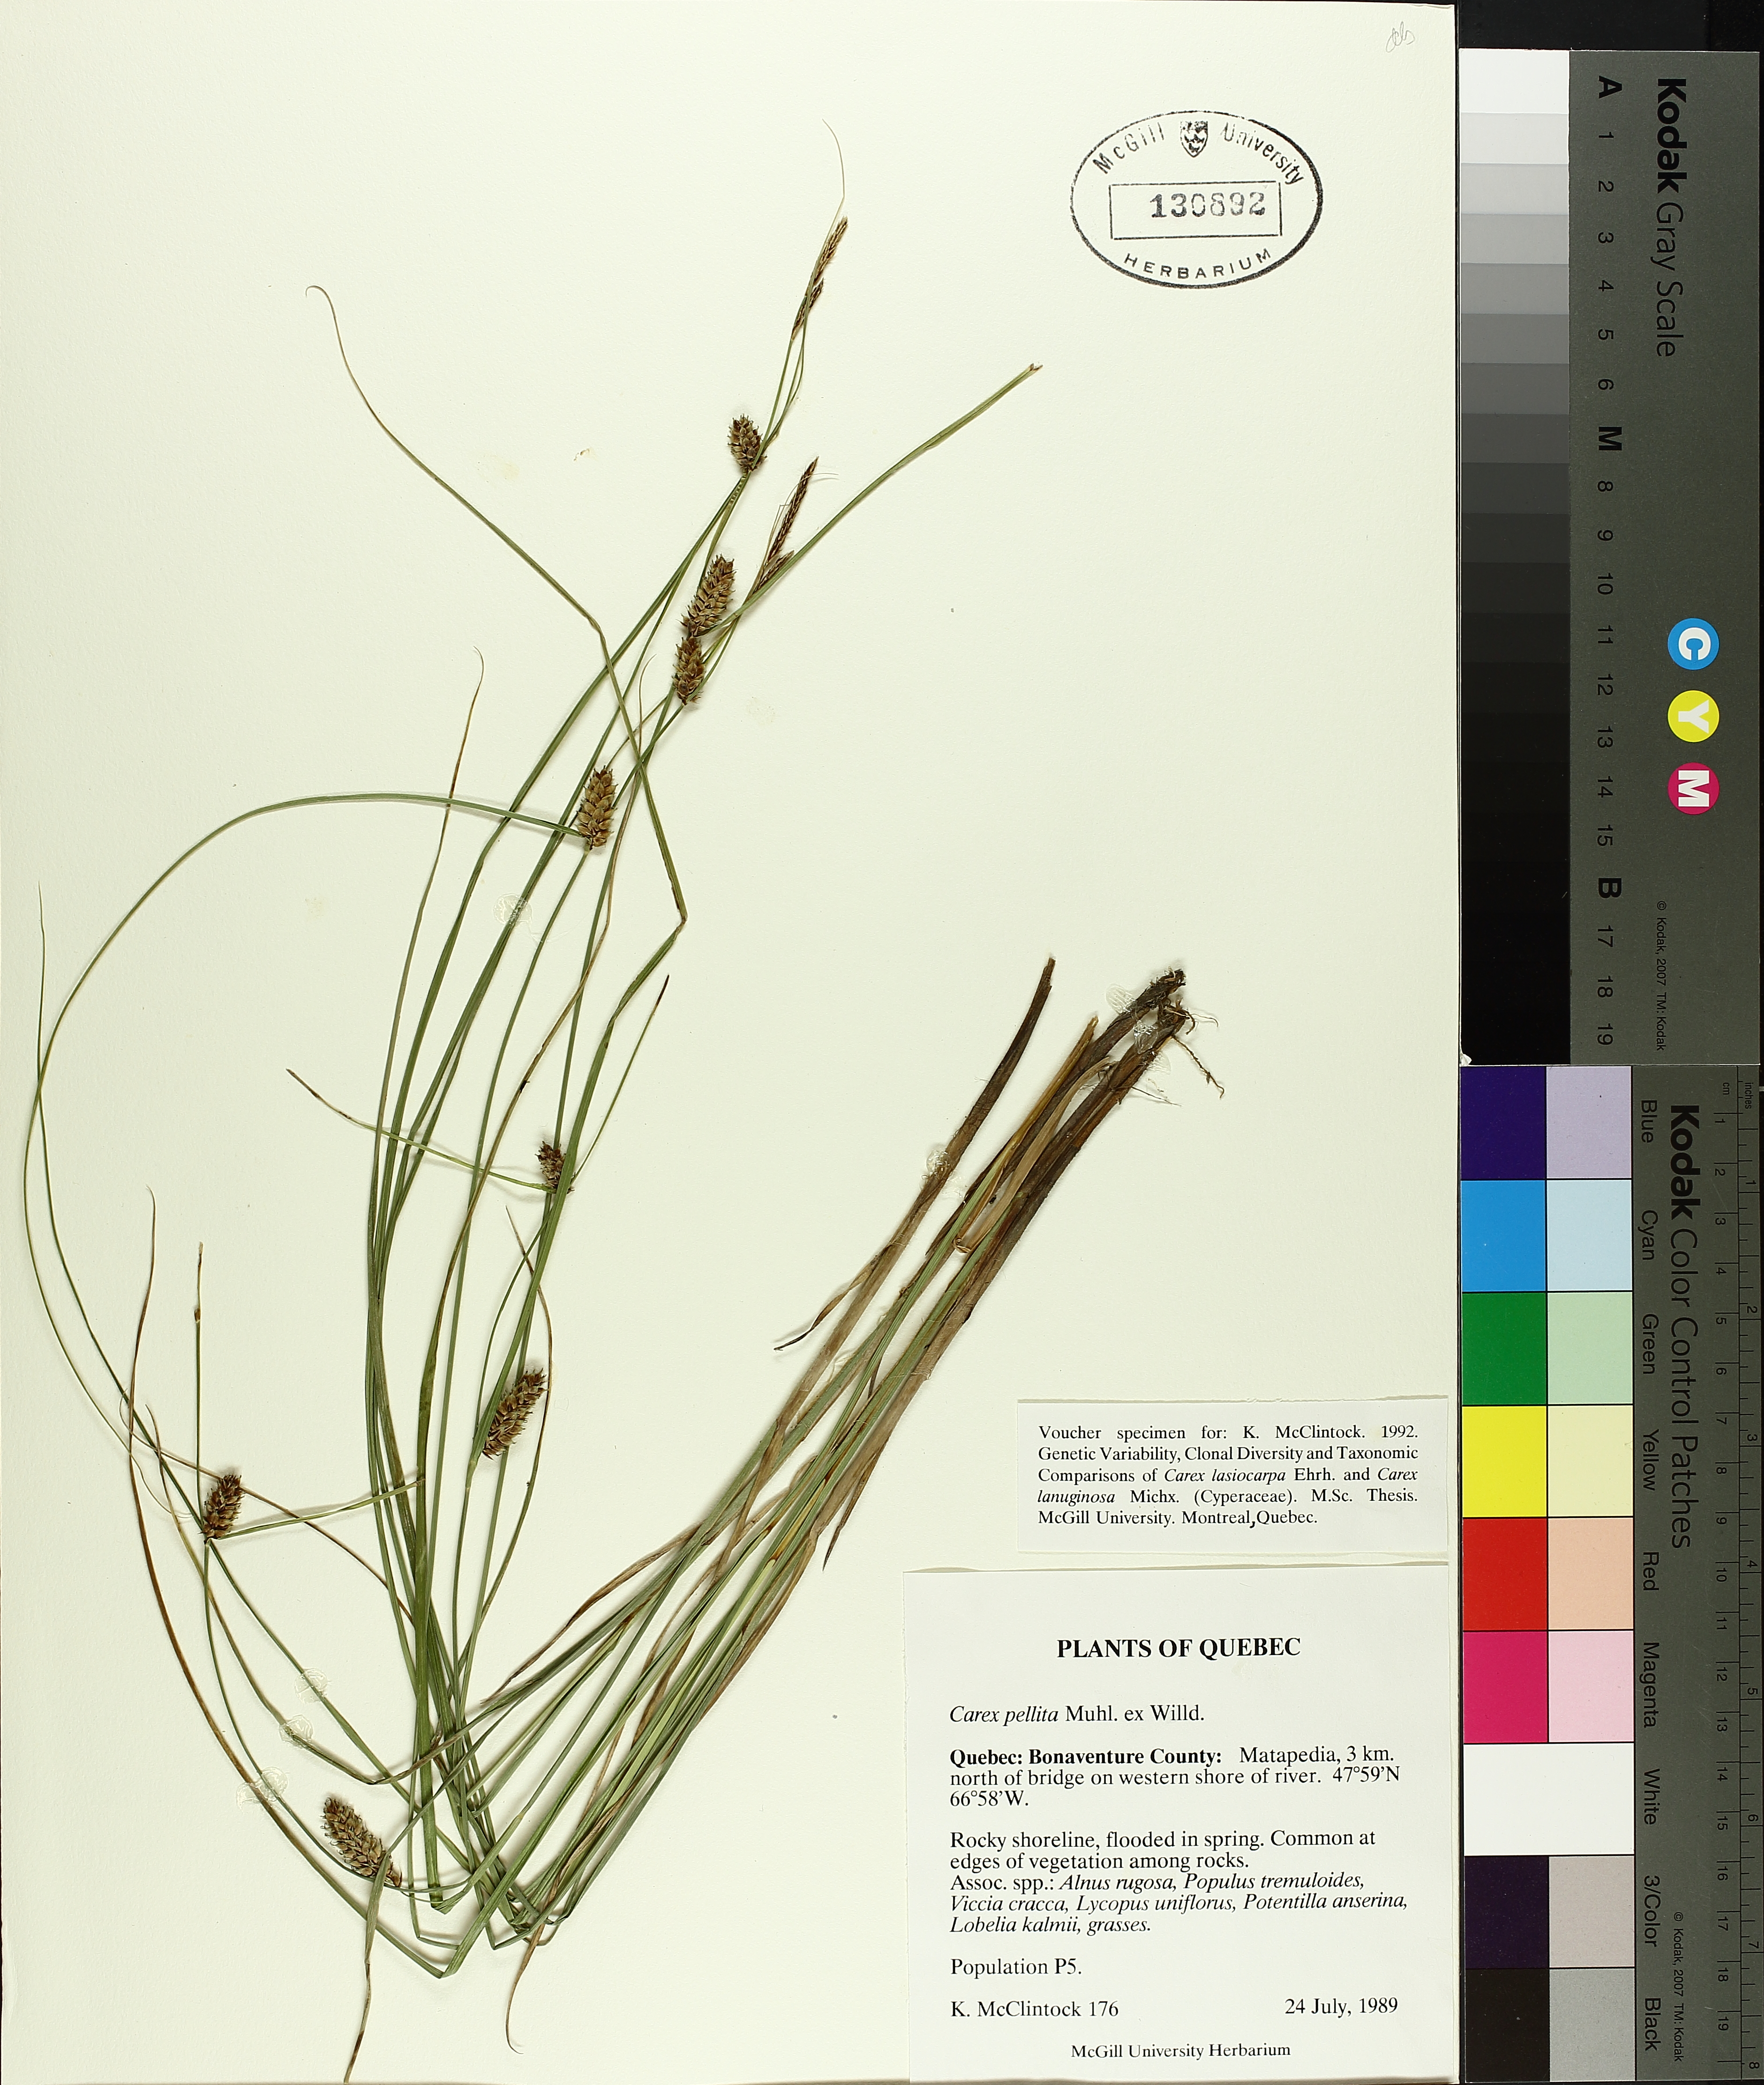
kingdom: Plantae
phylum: Tracheophyta
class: Liliopsida
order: Poales
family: Cyperaceae
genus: Carex
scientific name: Carex pellita
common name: Woolly sedge
